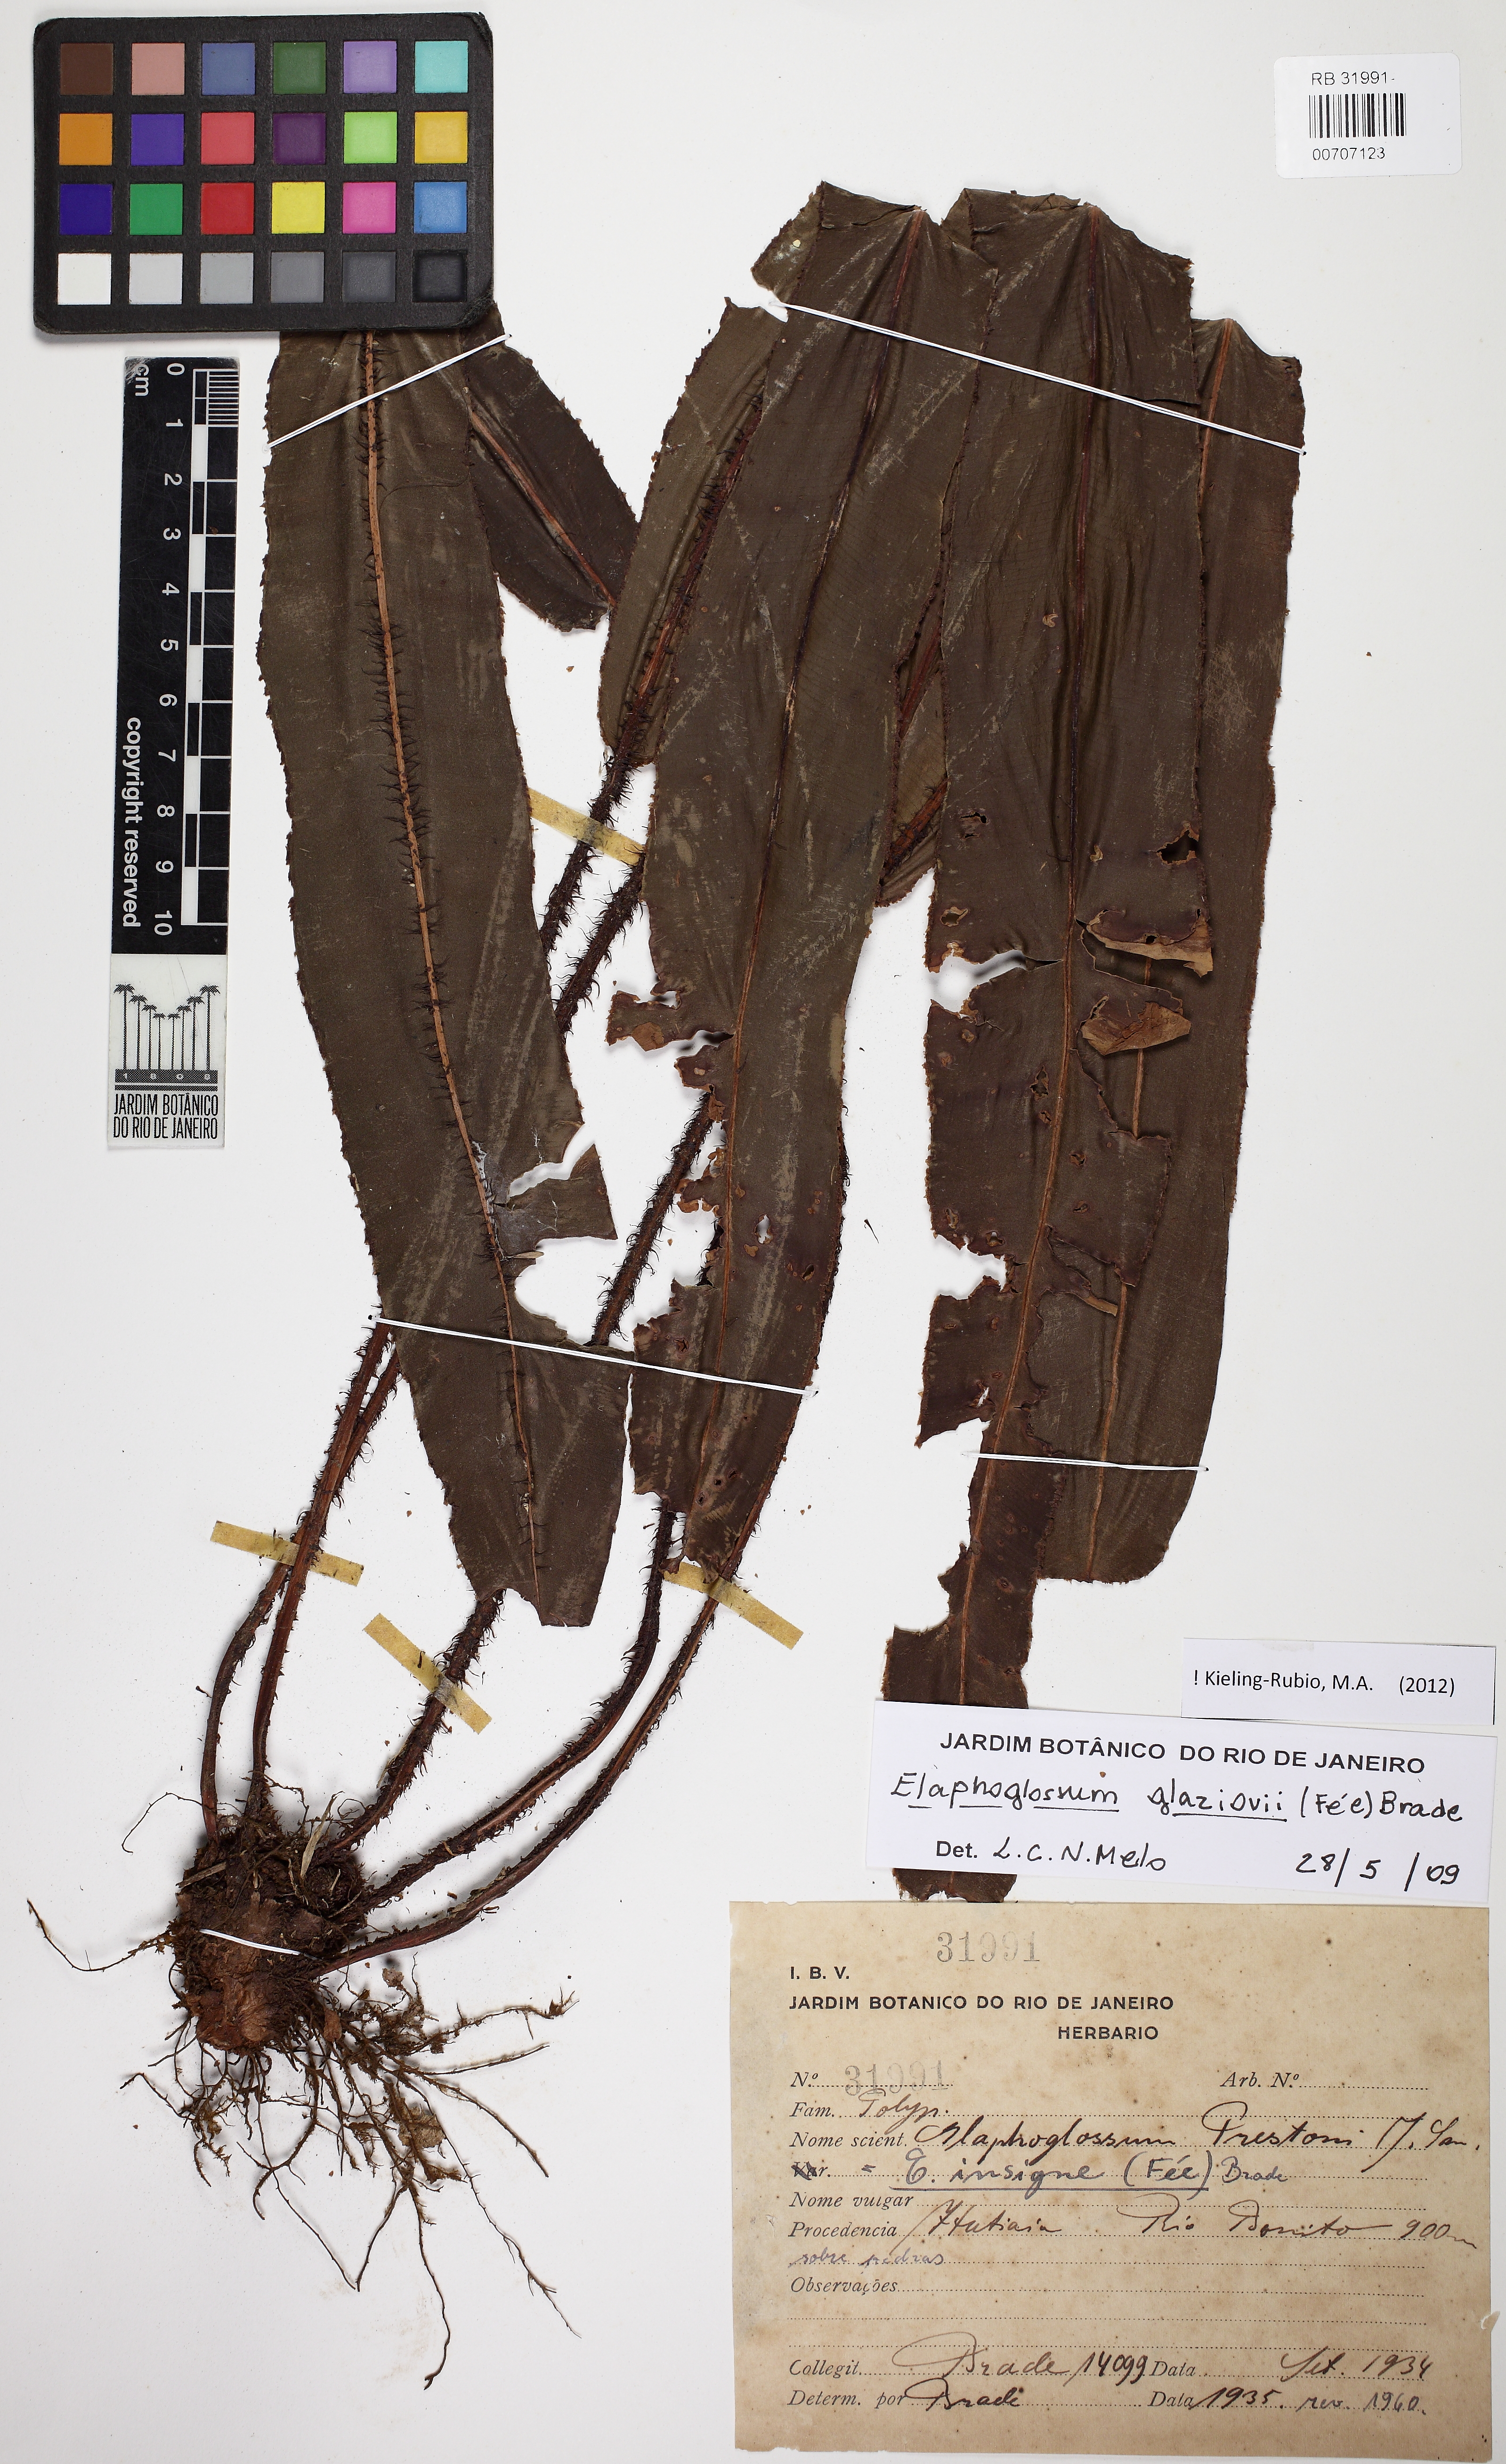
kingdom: Plantae
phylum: Tracheophyta
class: Polypodiopsida
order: Polypodiales
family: Dryopteridaceae
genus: Elaphoglossum
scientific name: Elaphoglossum glaziovii
